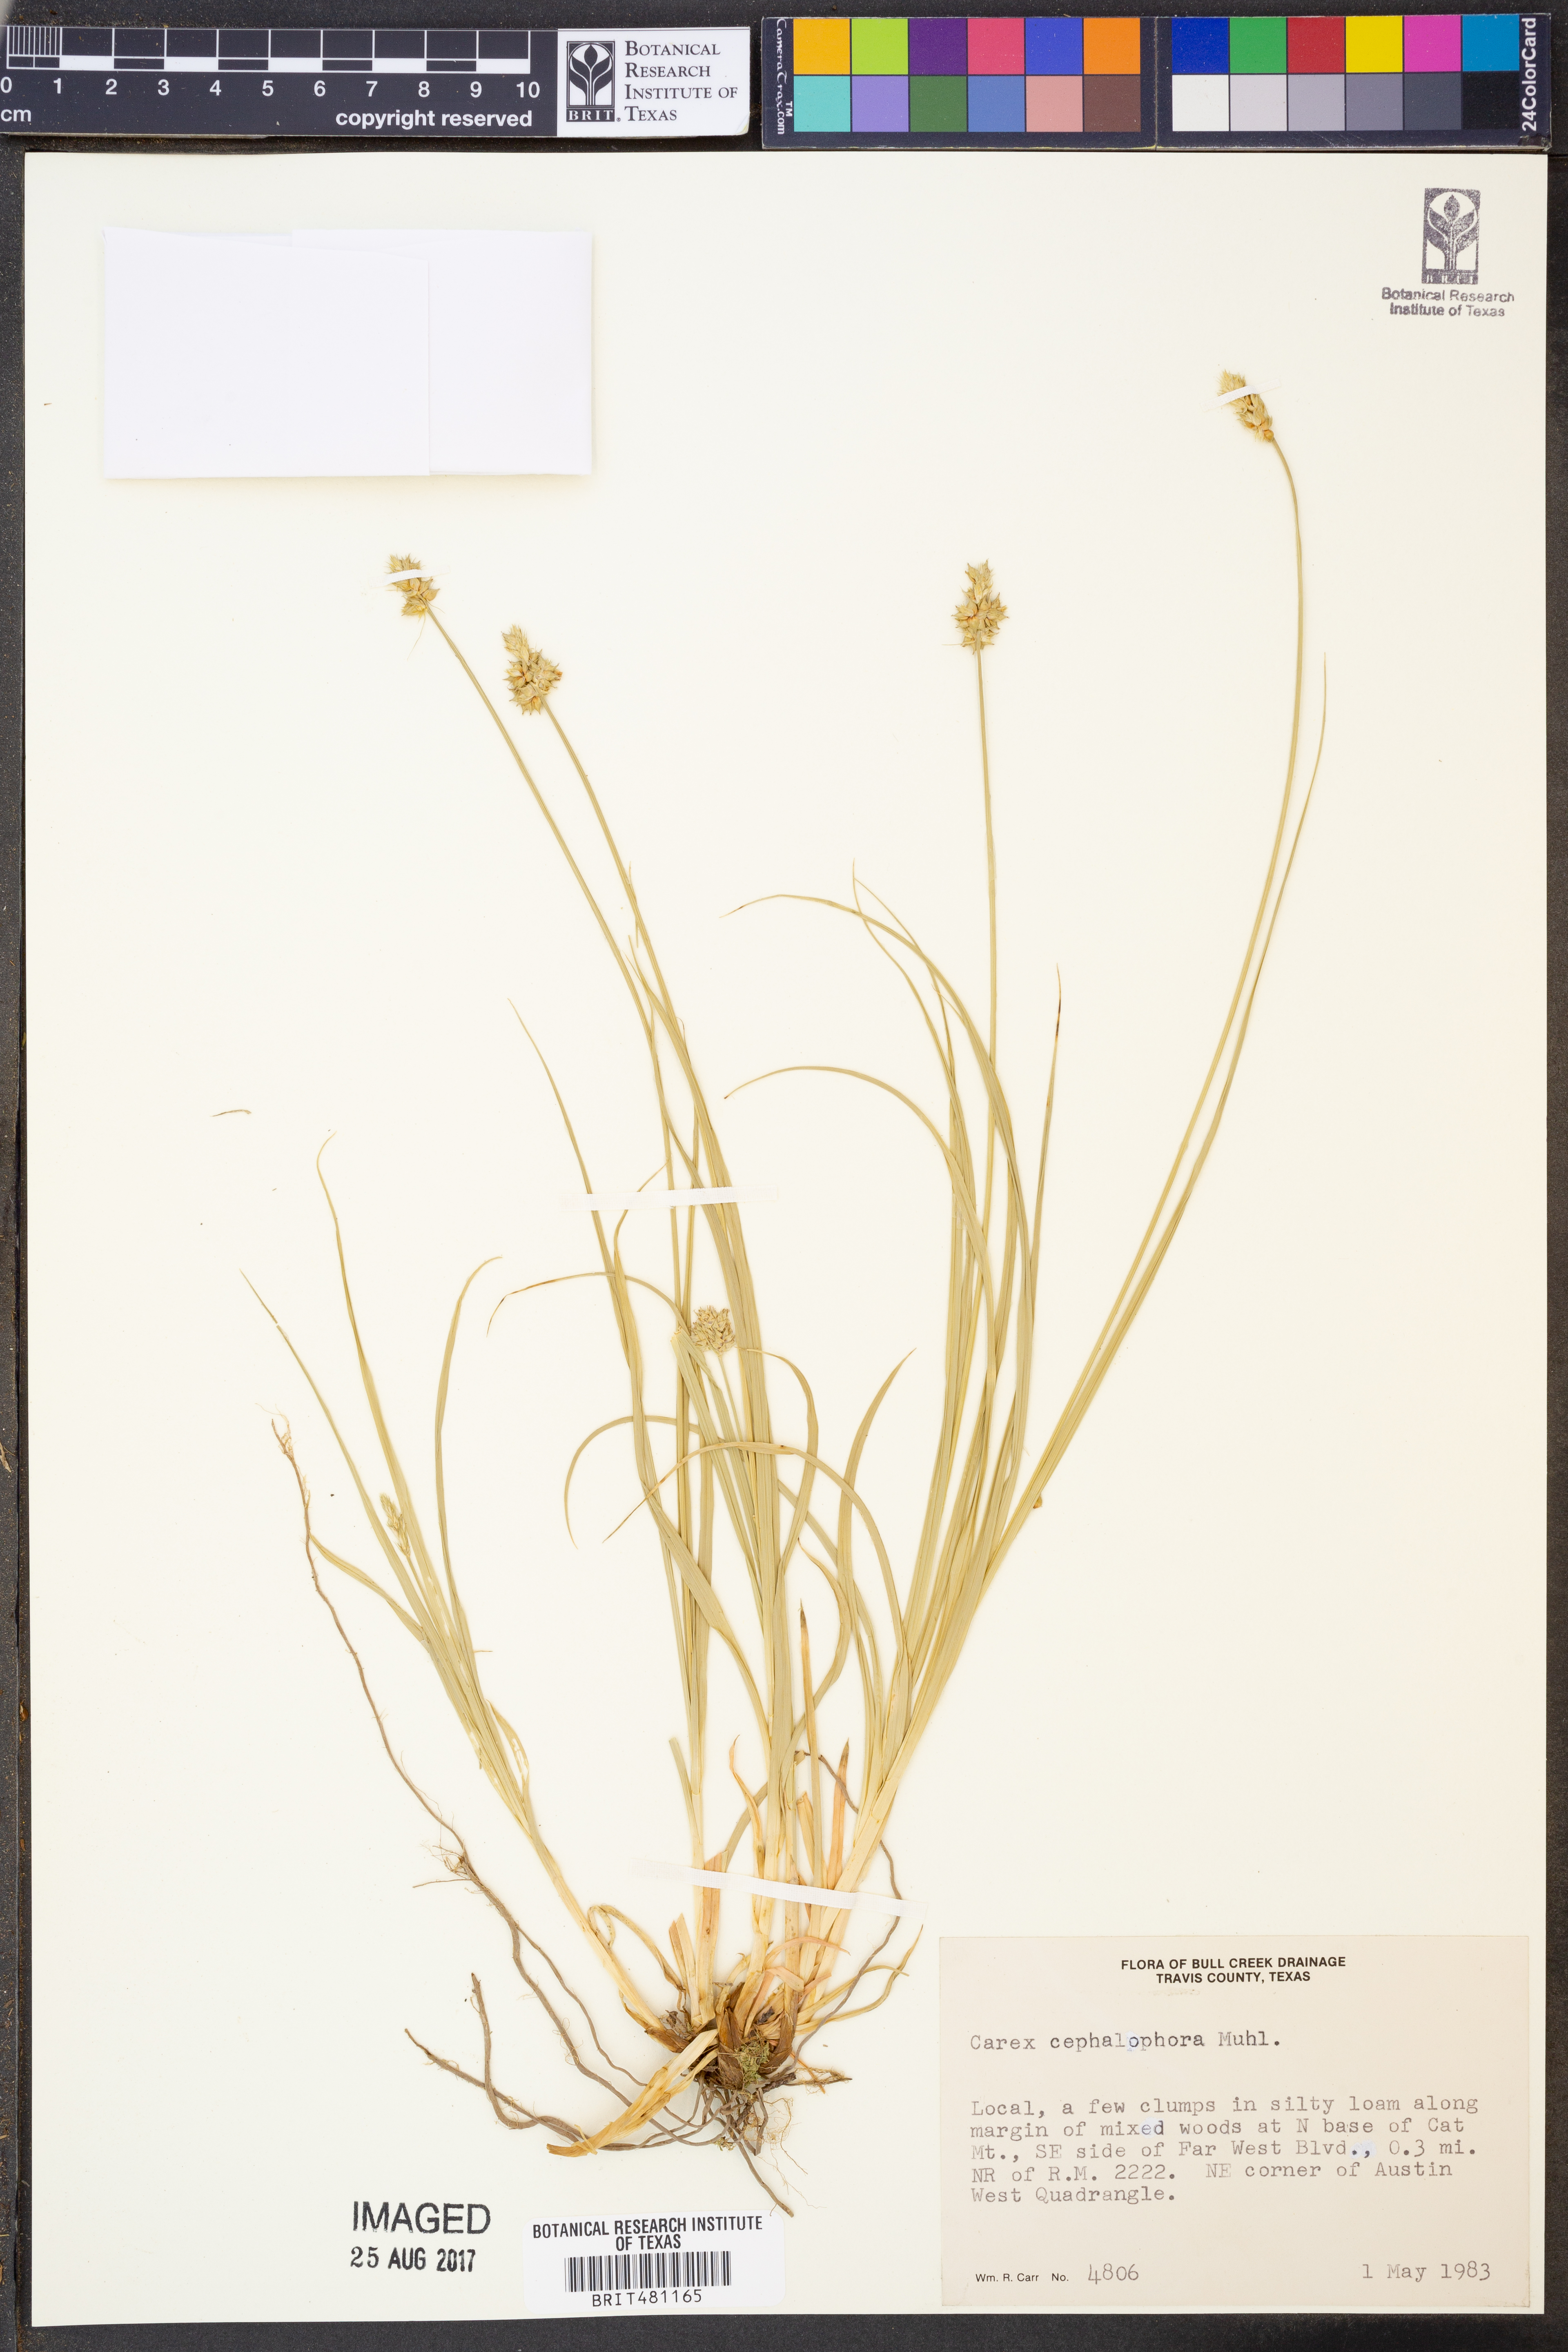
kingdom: Plantae
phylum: Tracheophyta
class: Liliopsida
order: Poales
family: Cyperaceae
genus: Carex
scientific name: Carex cephalophora
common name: Oval-headed sedge
